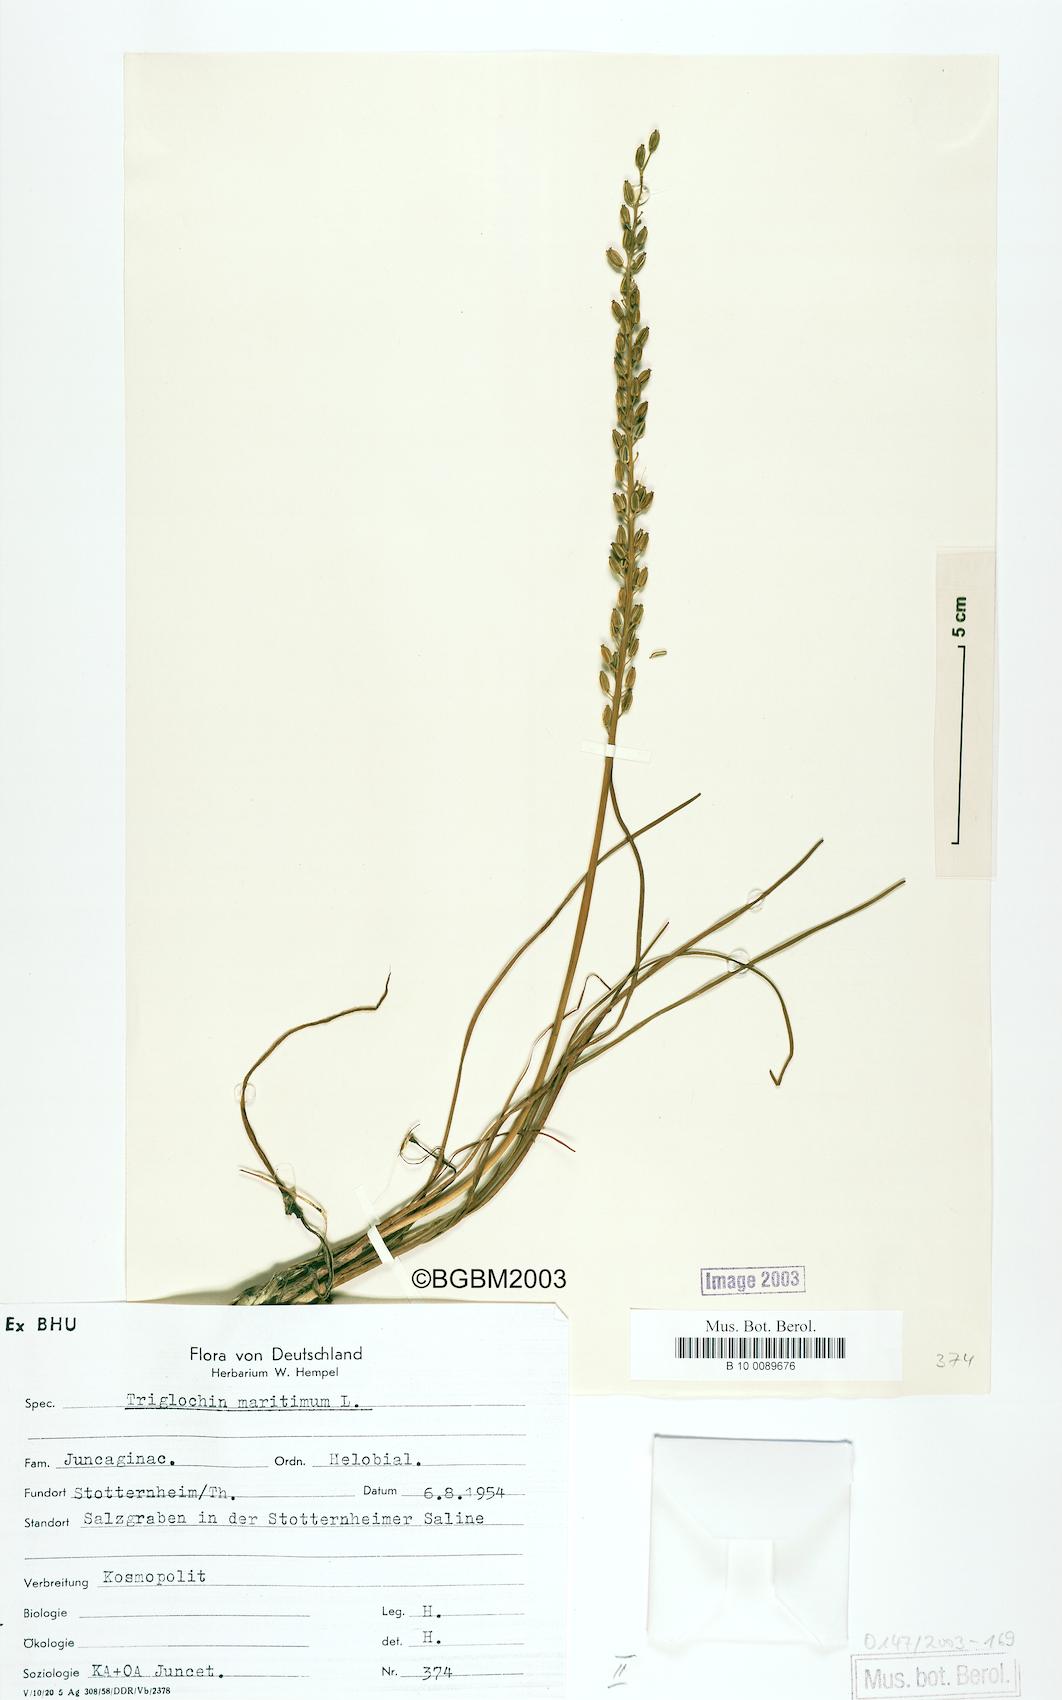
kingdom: Plantae
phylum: Tracheophyta
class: Liliopsida
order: Alismatales
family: Juncaginaceae
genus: Triglochin
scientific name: Triglochin maritima
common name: Sea arrowgrass
